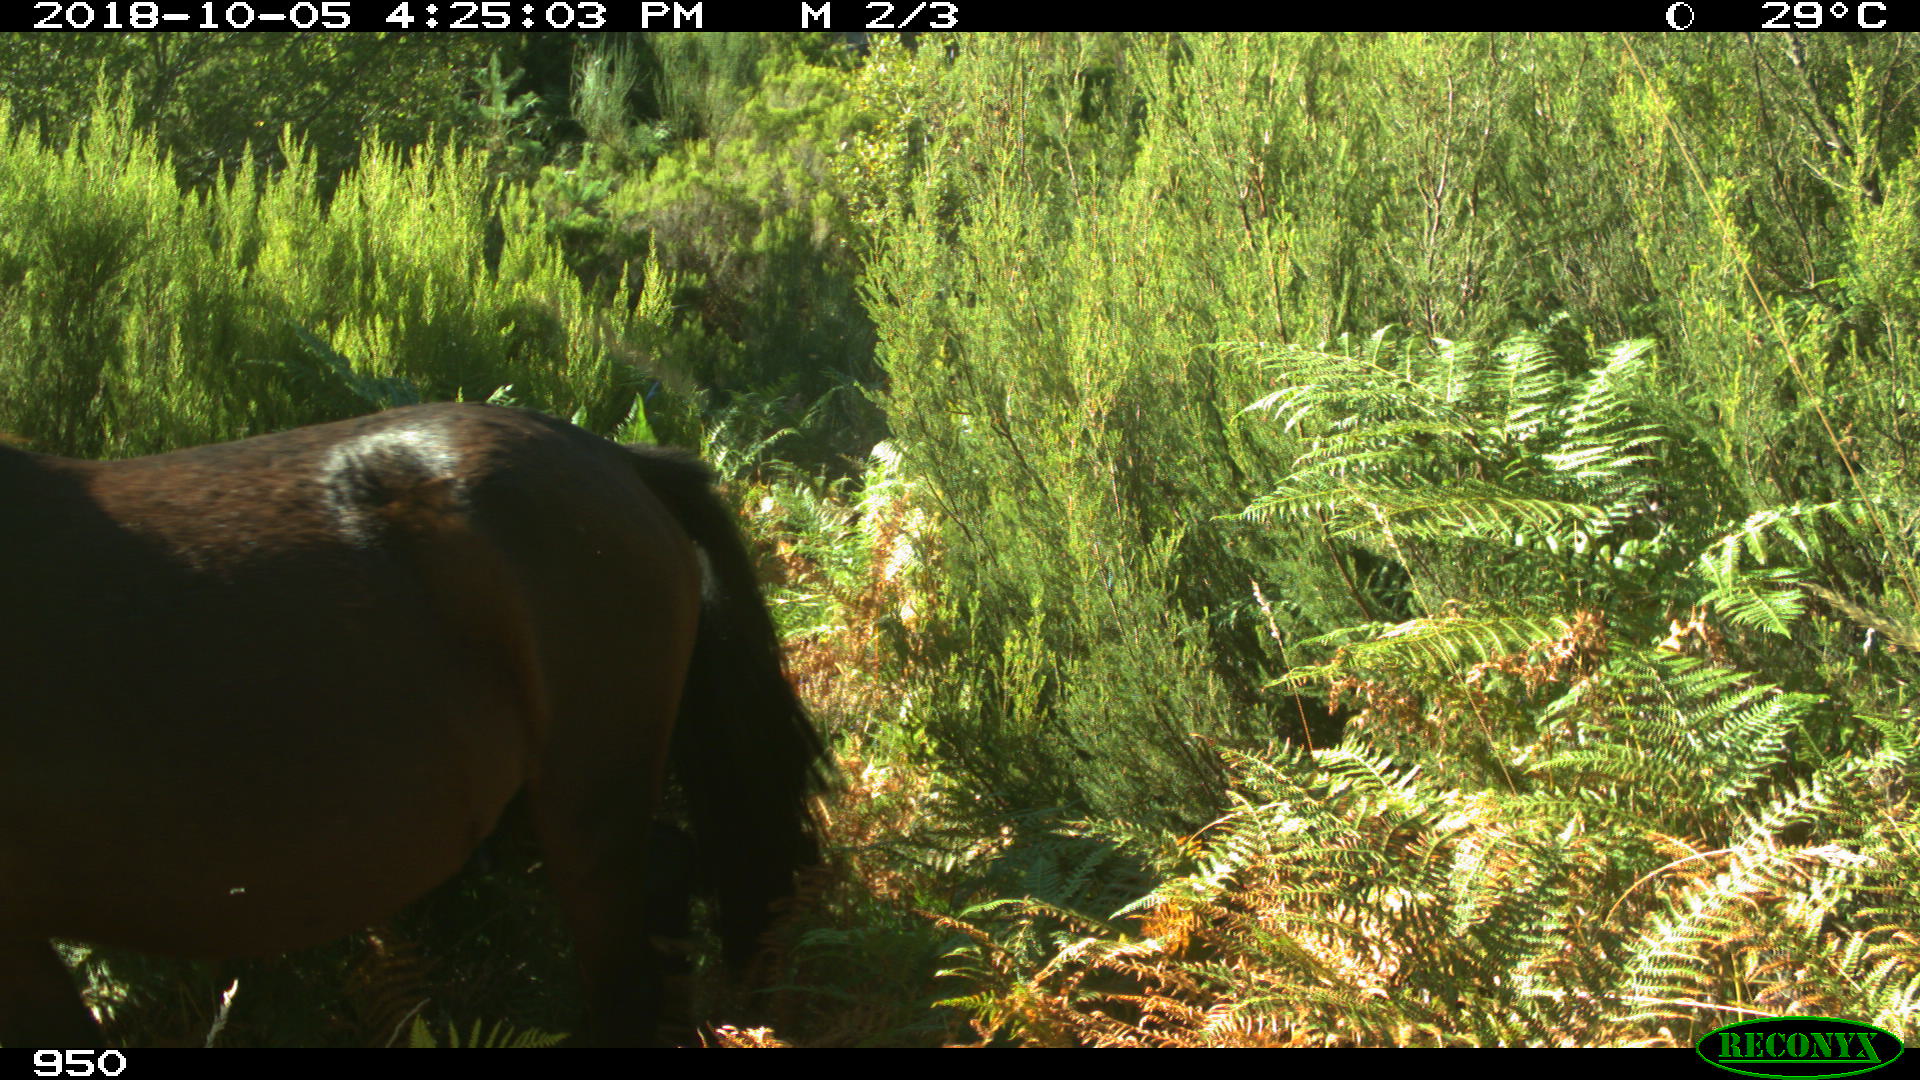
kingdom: Animalia
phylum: Chordata
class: Mammalia
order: Perissodactyla
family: Equidae
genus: Equus
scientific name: Equus caballus
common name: Horse
